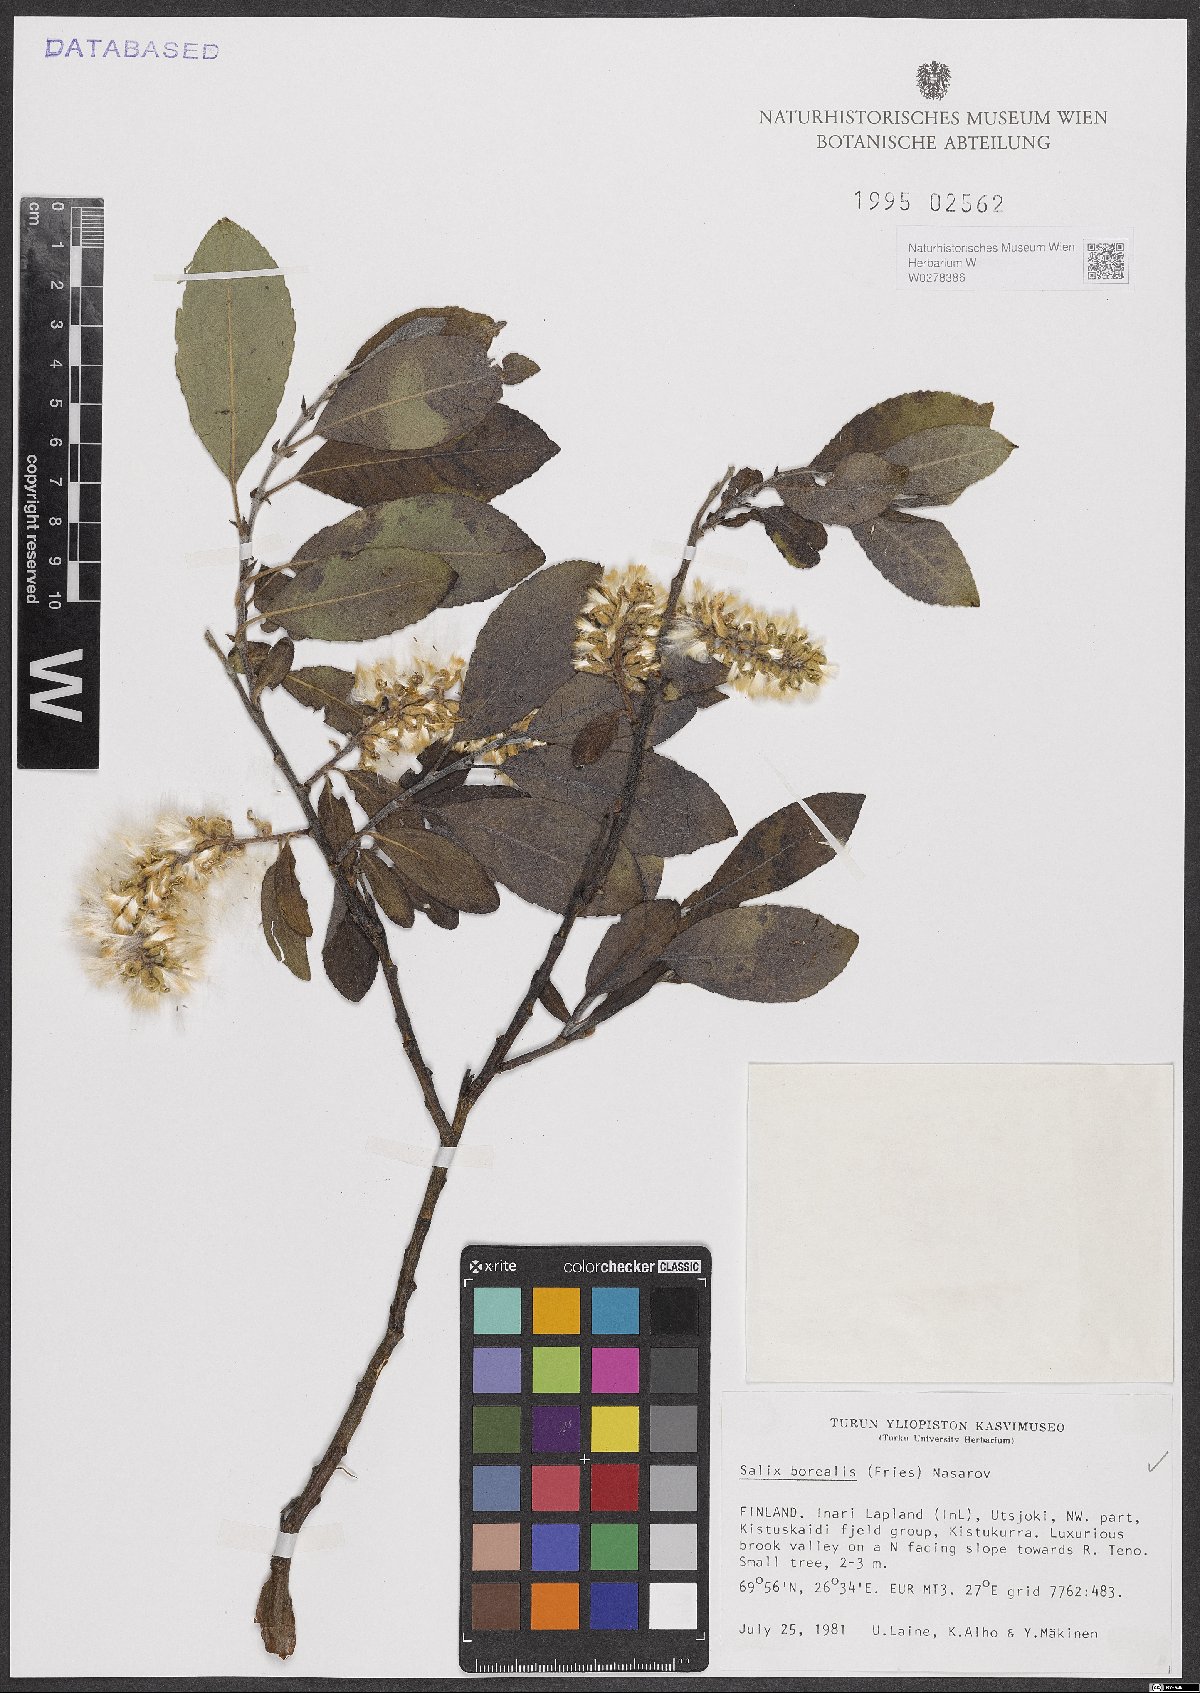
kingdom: Plantae
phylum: Tracheophyta
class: Magnoliopsida
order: Malpighiales
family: Salicaceae
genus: Salix
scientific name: Salix myrsinifolia
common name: Dark-leaved willow
